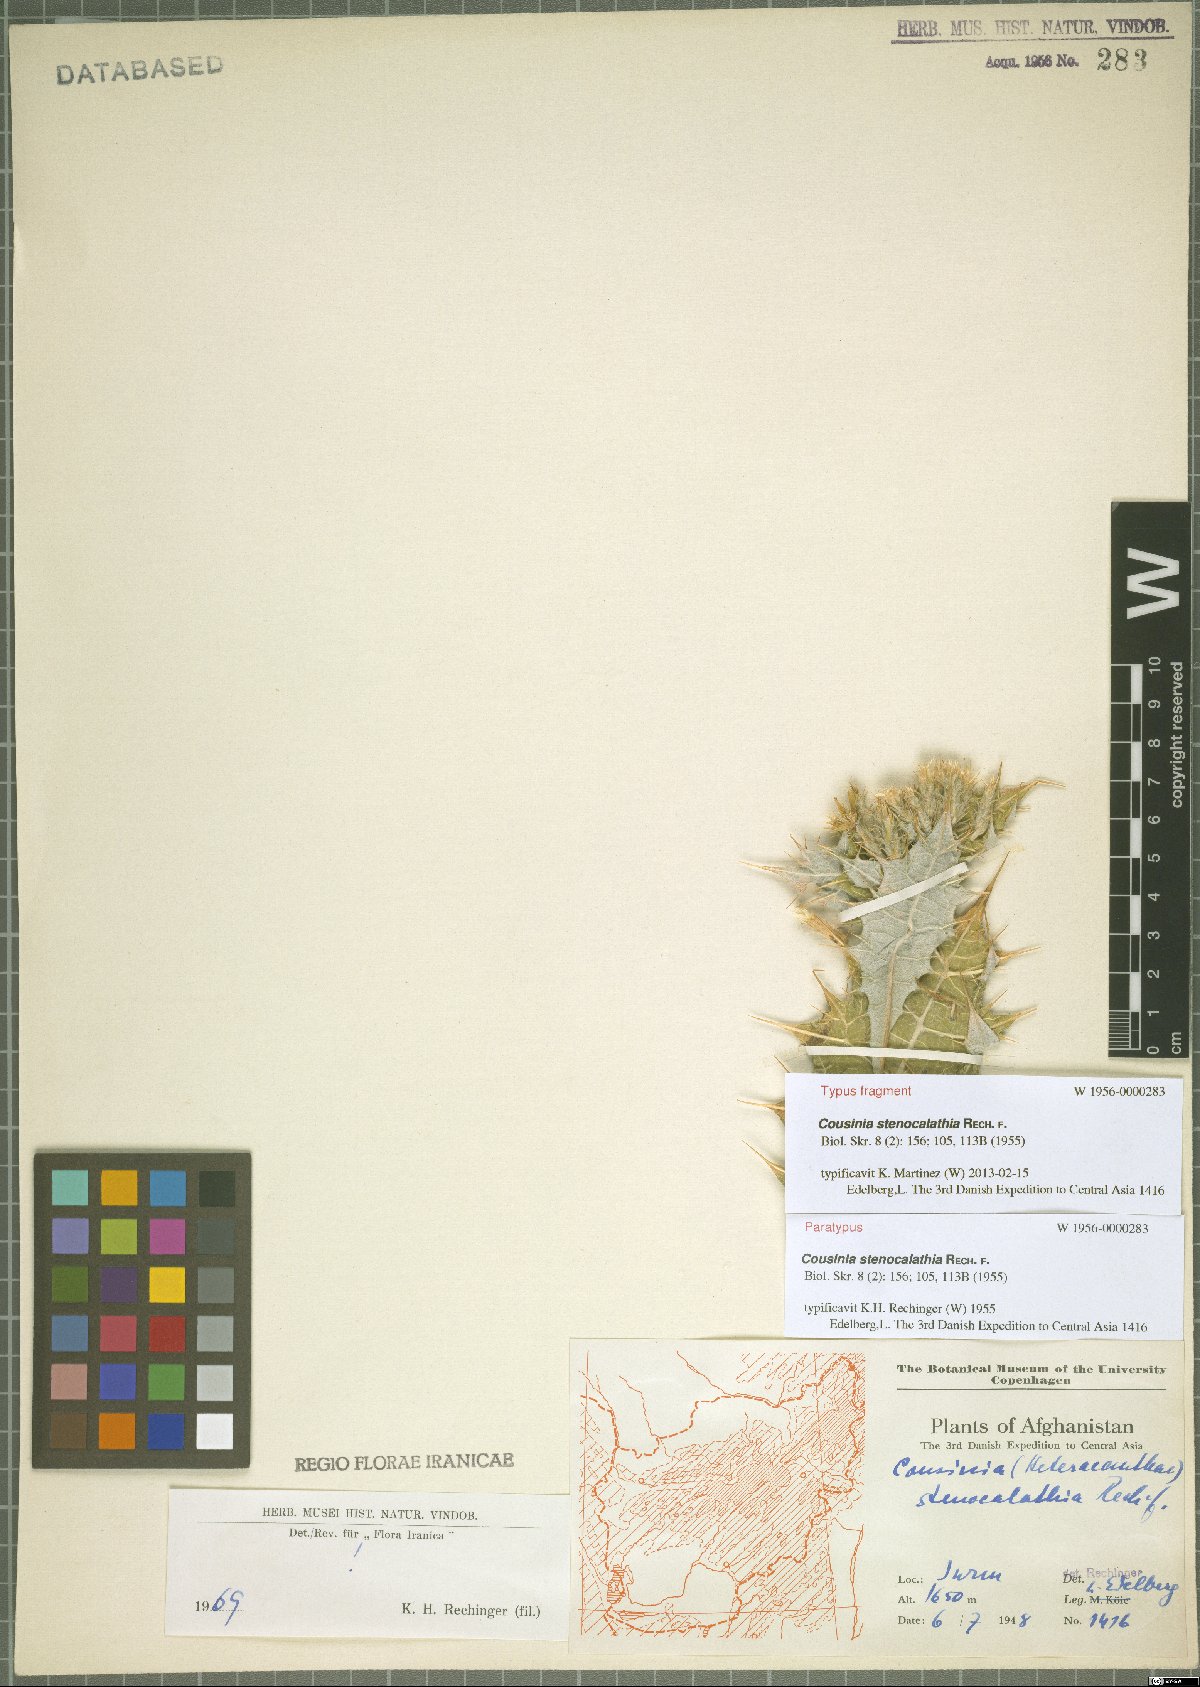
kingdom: Plantae
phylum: Tracheophyta
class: Magnoliopsida
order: Asterales
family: Asteraceae
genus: Cousinia
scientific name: Cousinia stenocalathia
